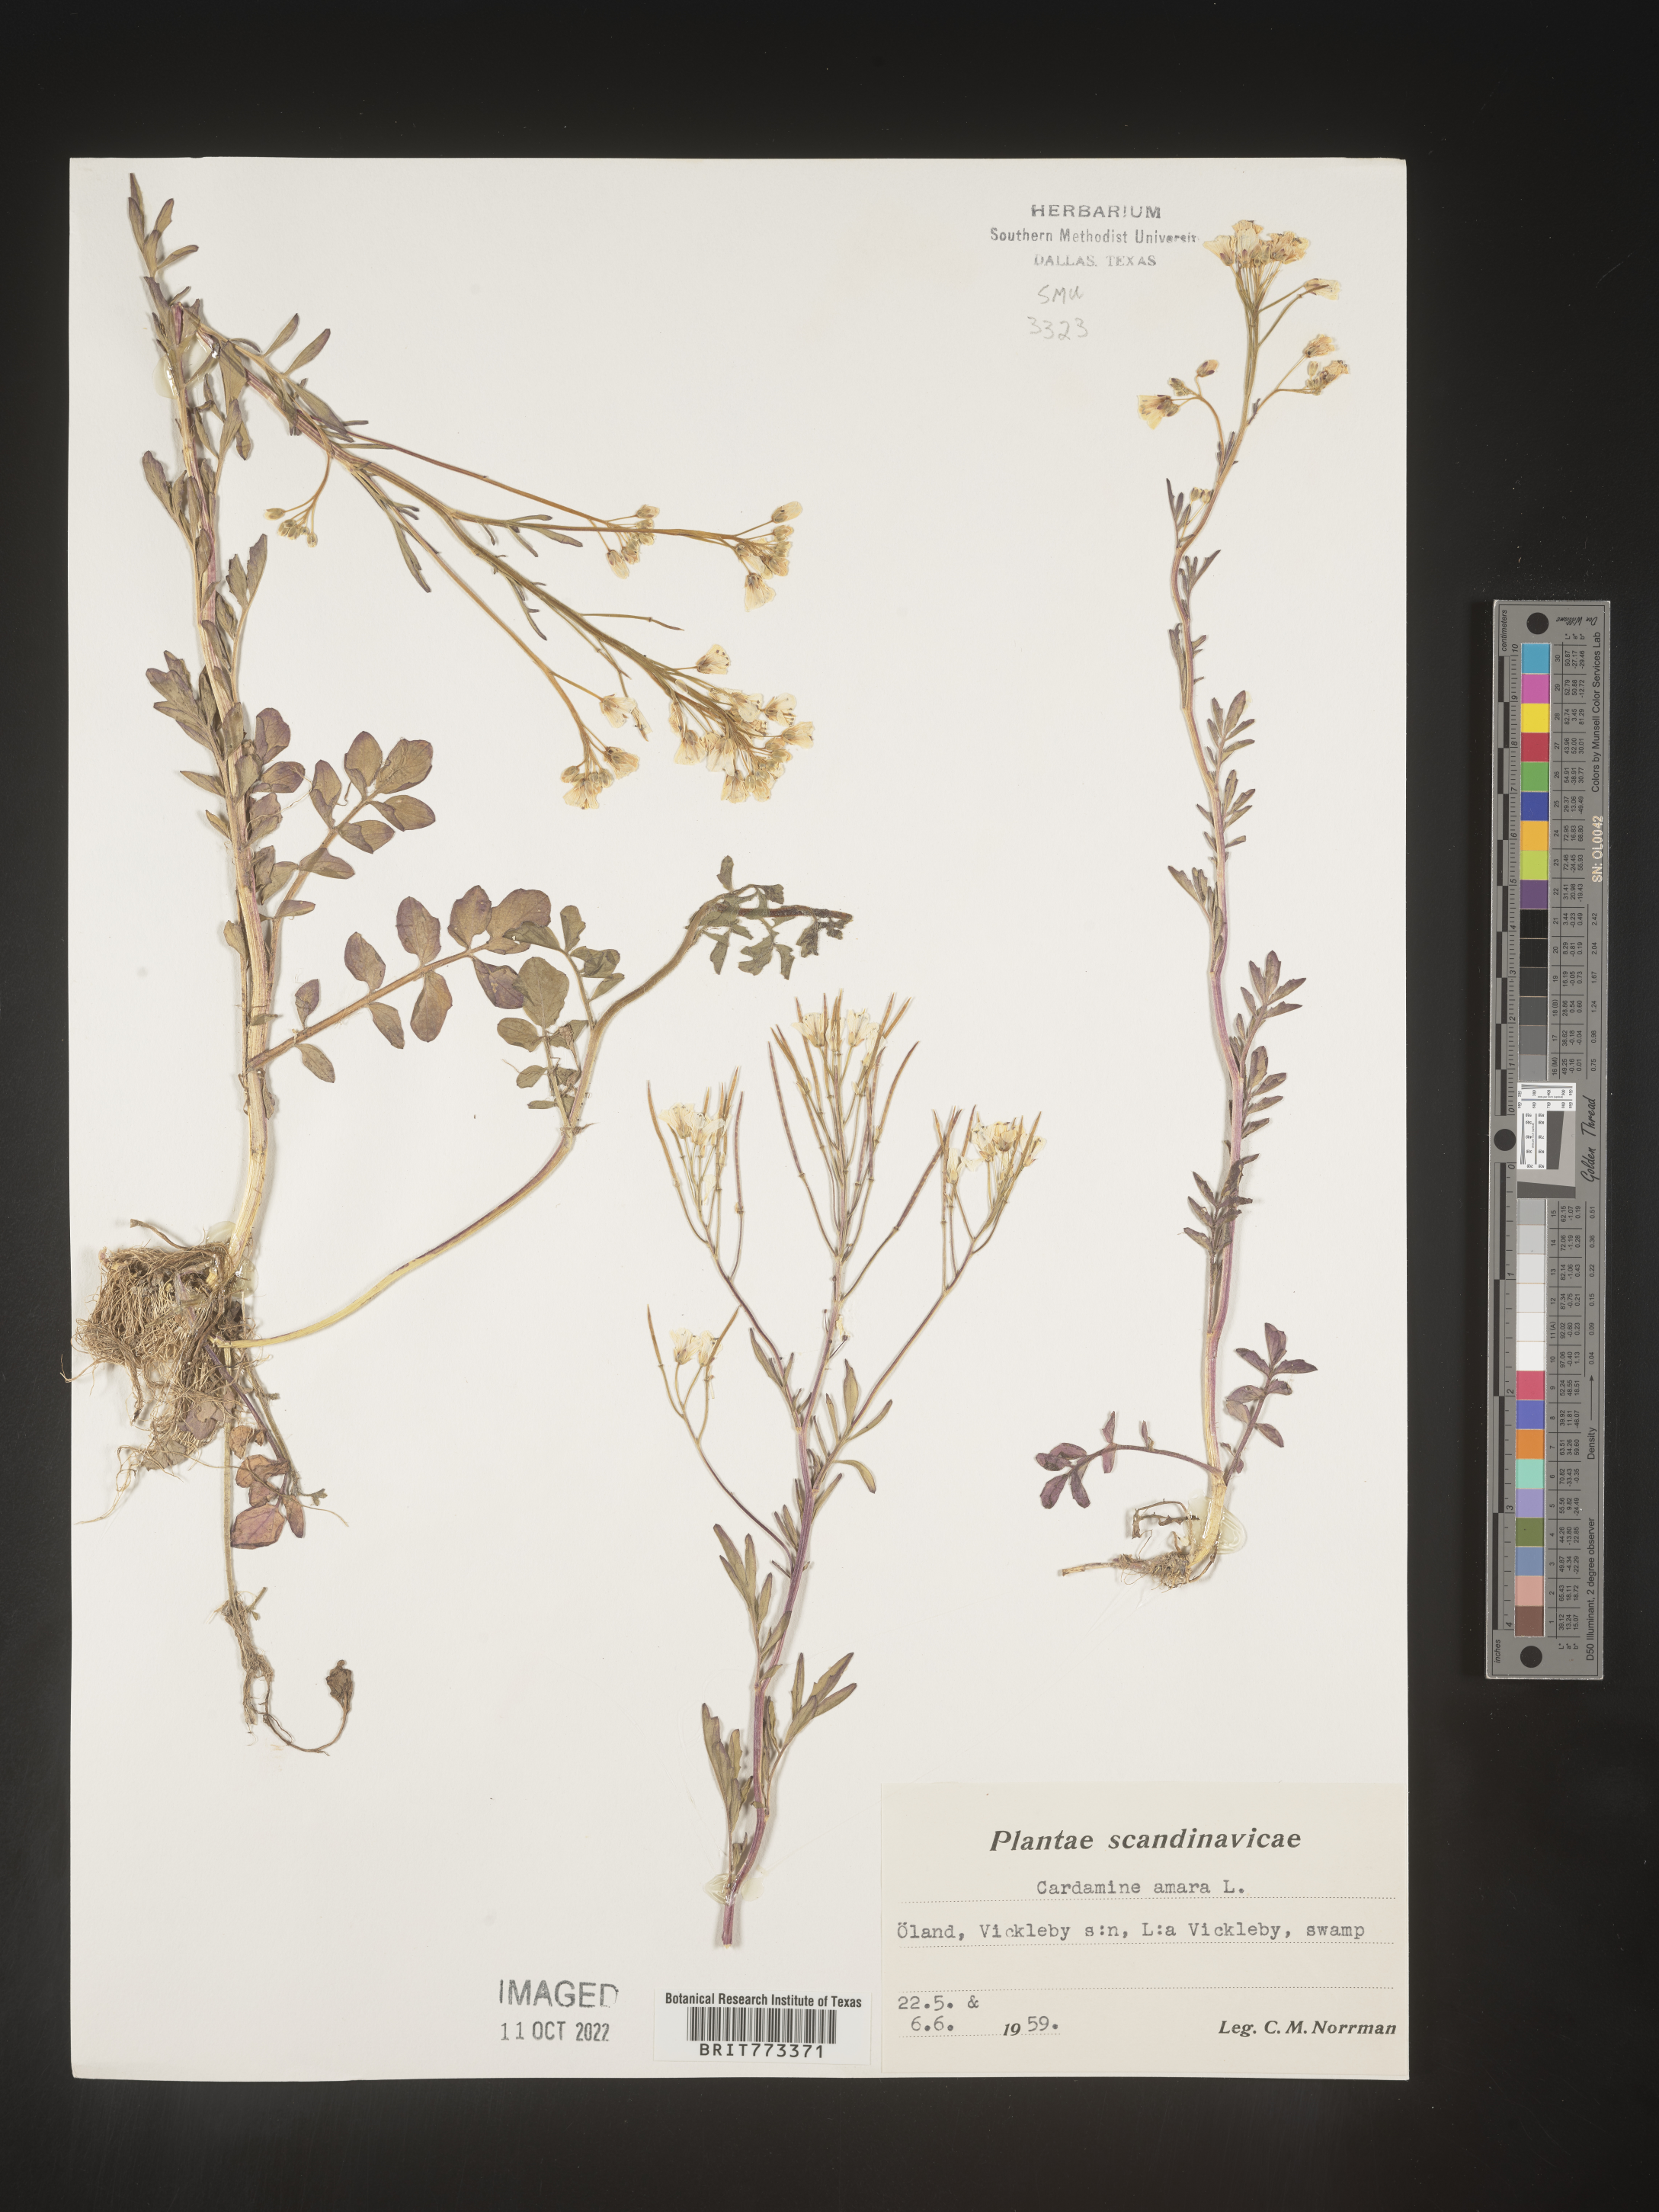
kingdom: Plantae
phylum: Tracheophyta
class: Magnoliopsida
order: Brassicales
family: Brassicaceae
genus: Cardamine
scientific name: Cardamine
